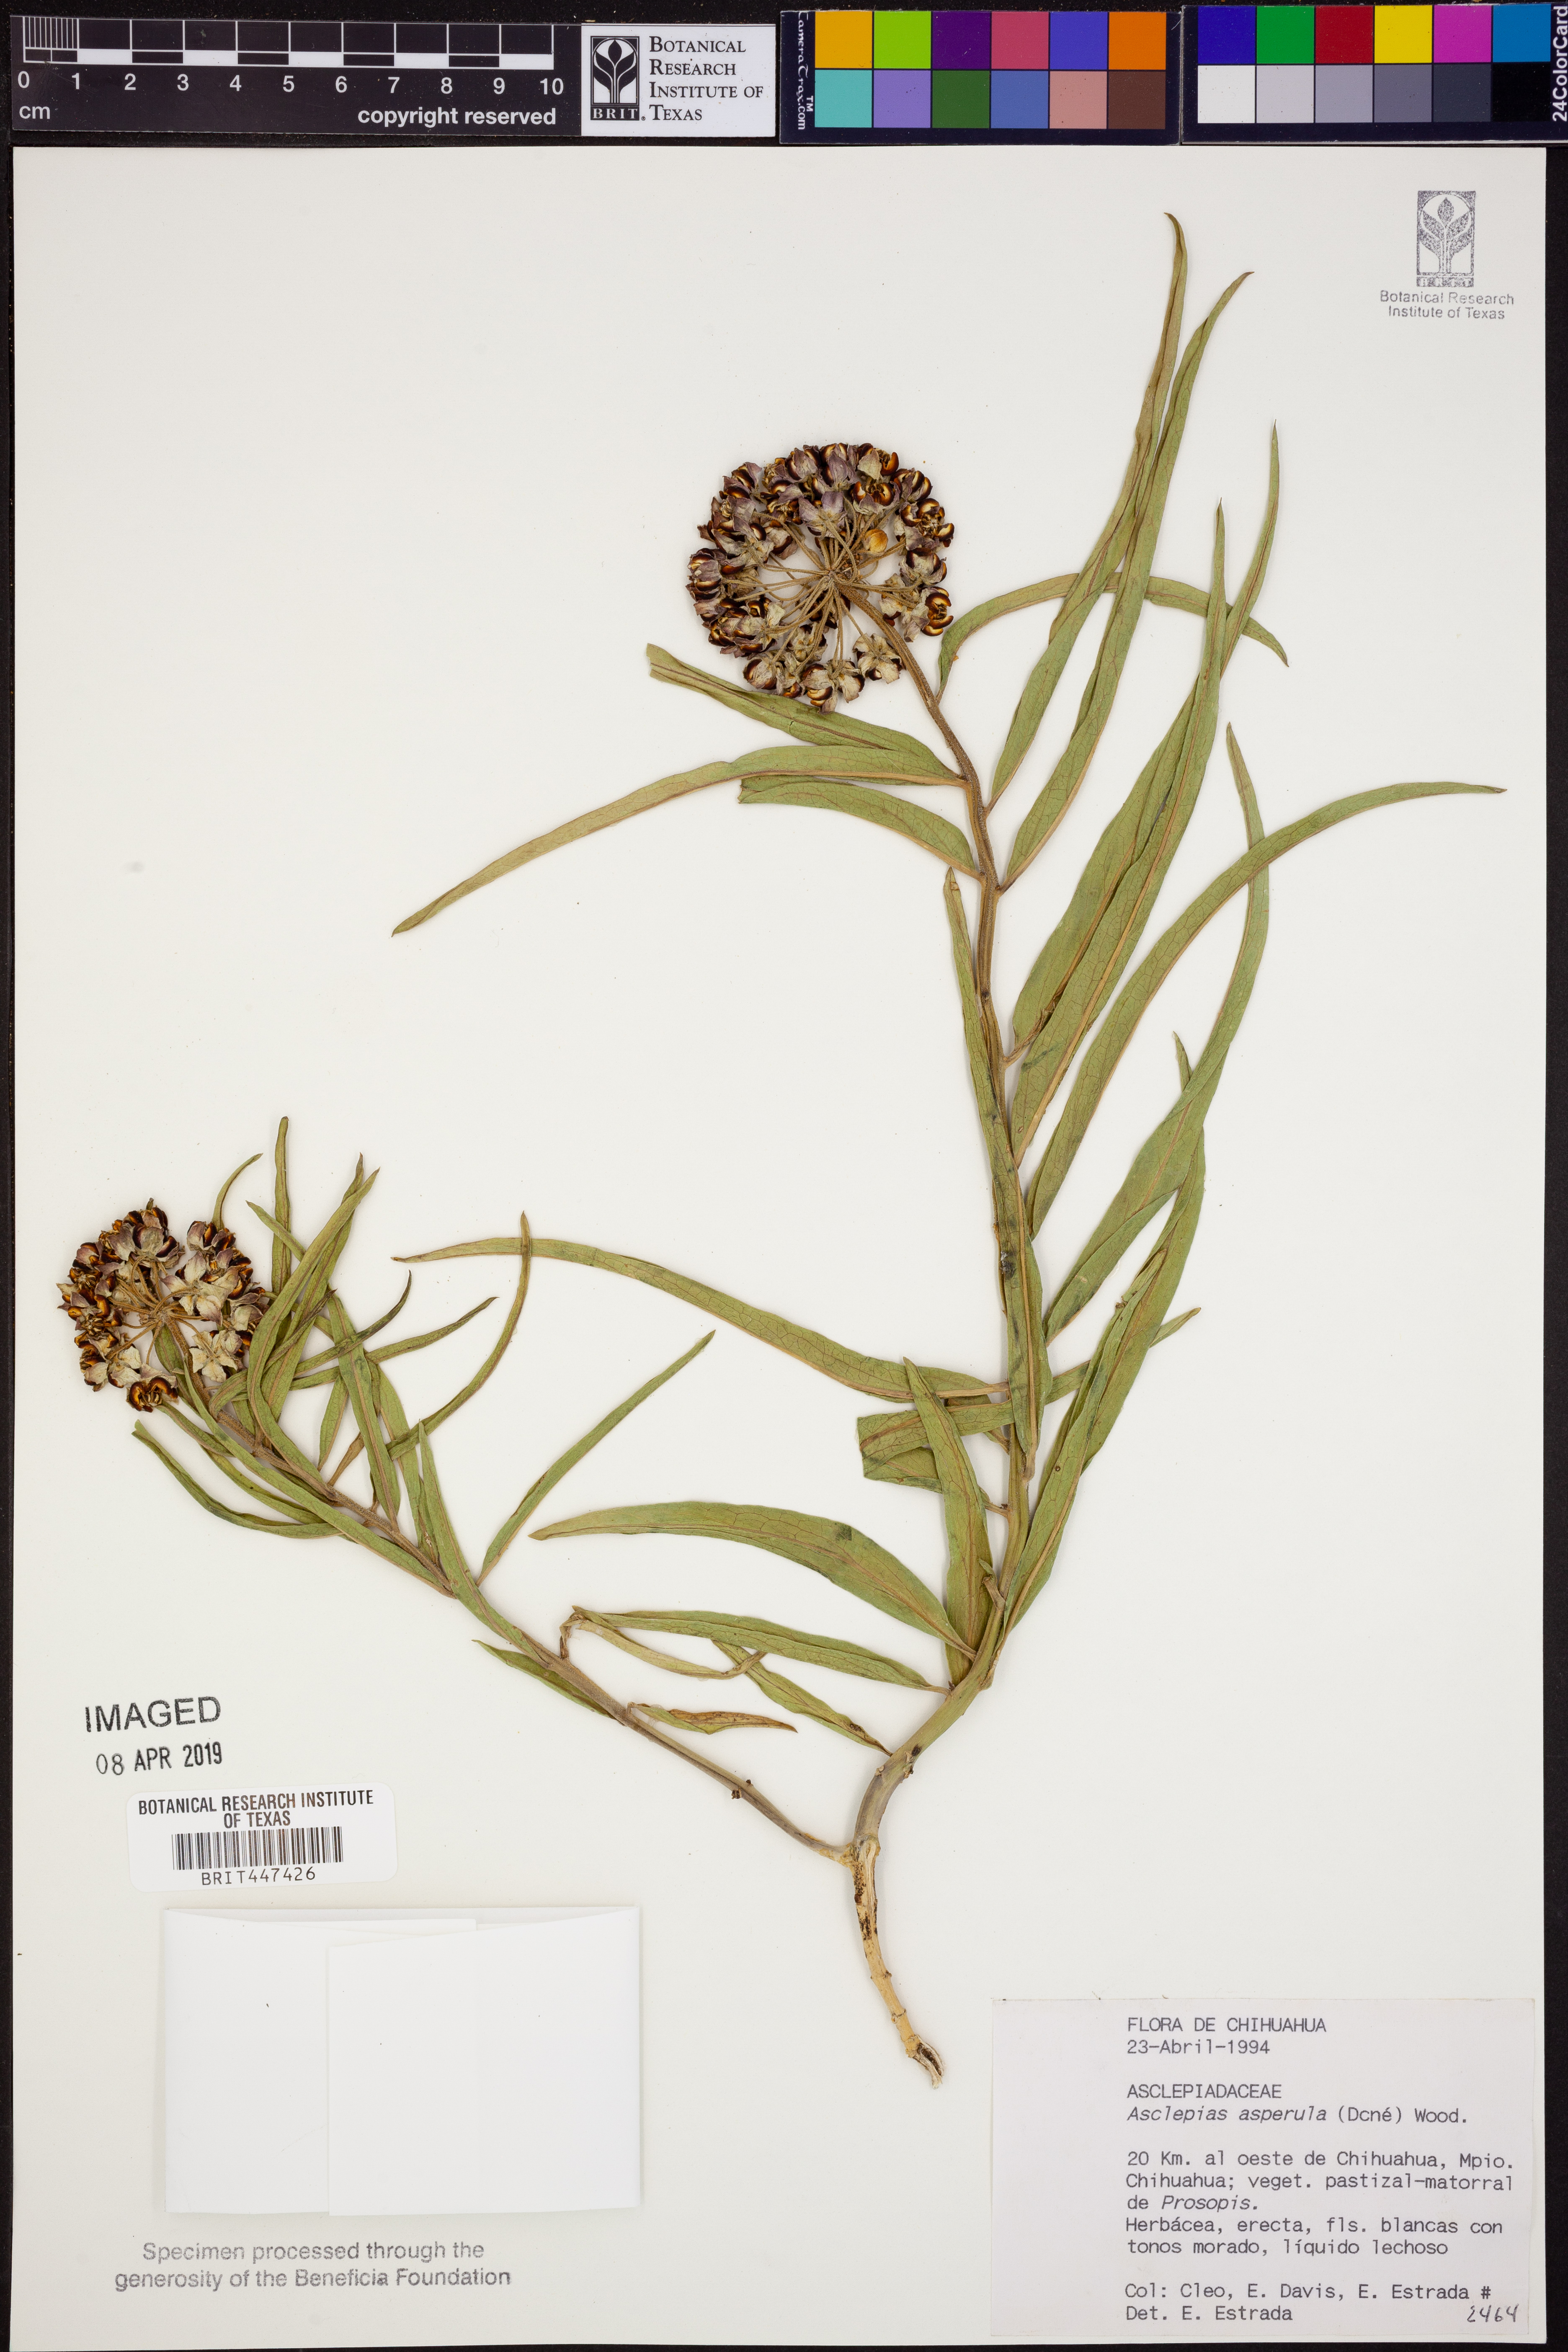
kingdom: Plantae
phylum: Tracheophyta
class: Magnoliopsida
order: Gentianales
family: Apocynaceae
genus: Asclepias
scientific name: Asclepias asperula
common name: Antelope horns
